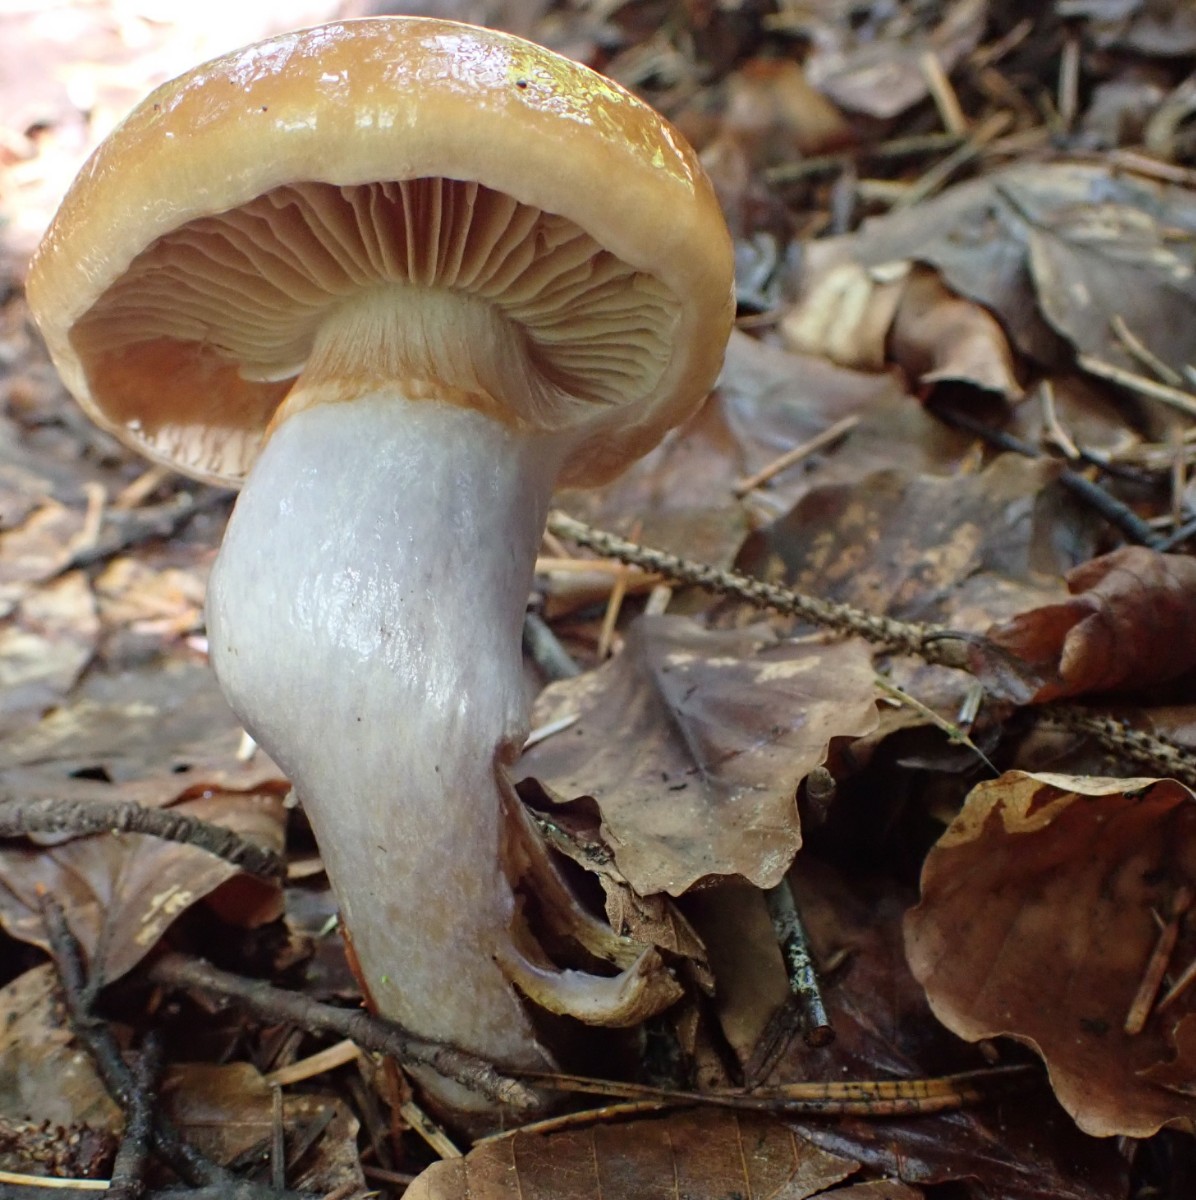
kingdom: Fungi
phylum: Basidiomycota
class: Agaricomycetes
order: Agaricales
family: Cortinariaceae
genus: Cortinarius
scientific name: Cortinarius
